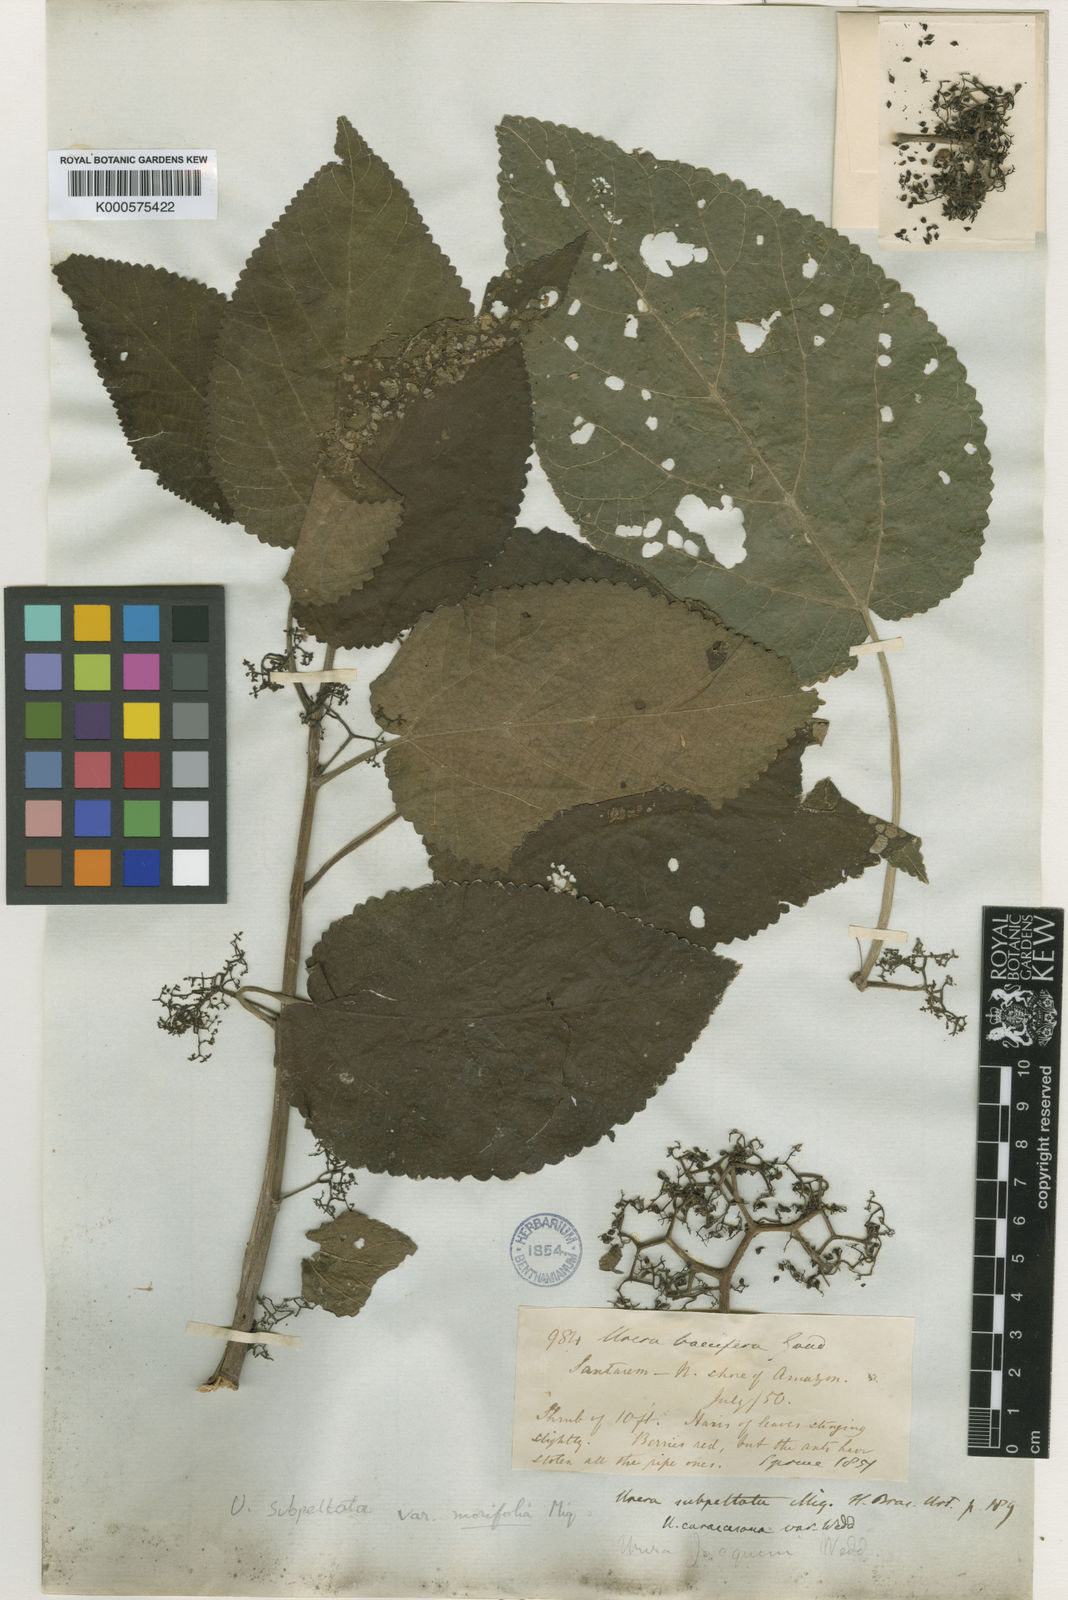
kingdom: Plantae
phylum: Tracheophyta
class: Magnoliopsida
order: Rosales
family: Urticaceae
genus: Urera
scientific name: Urera caracasana
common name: Flameberry
